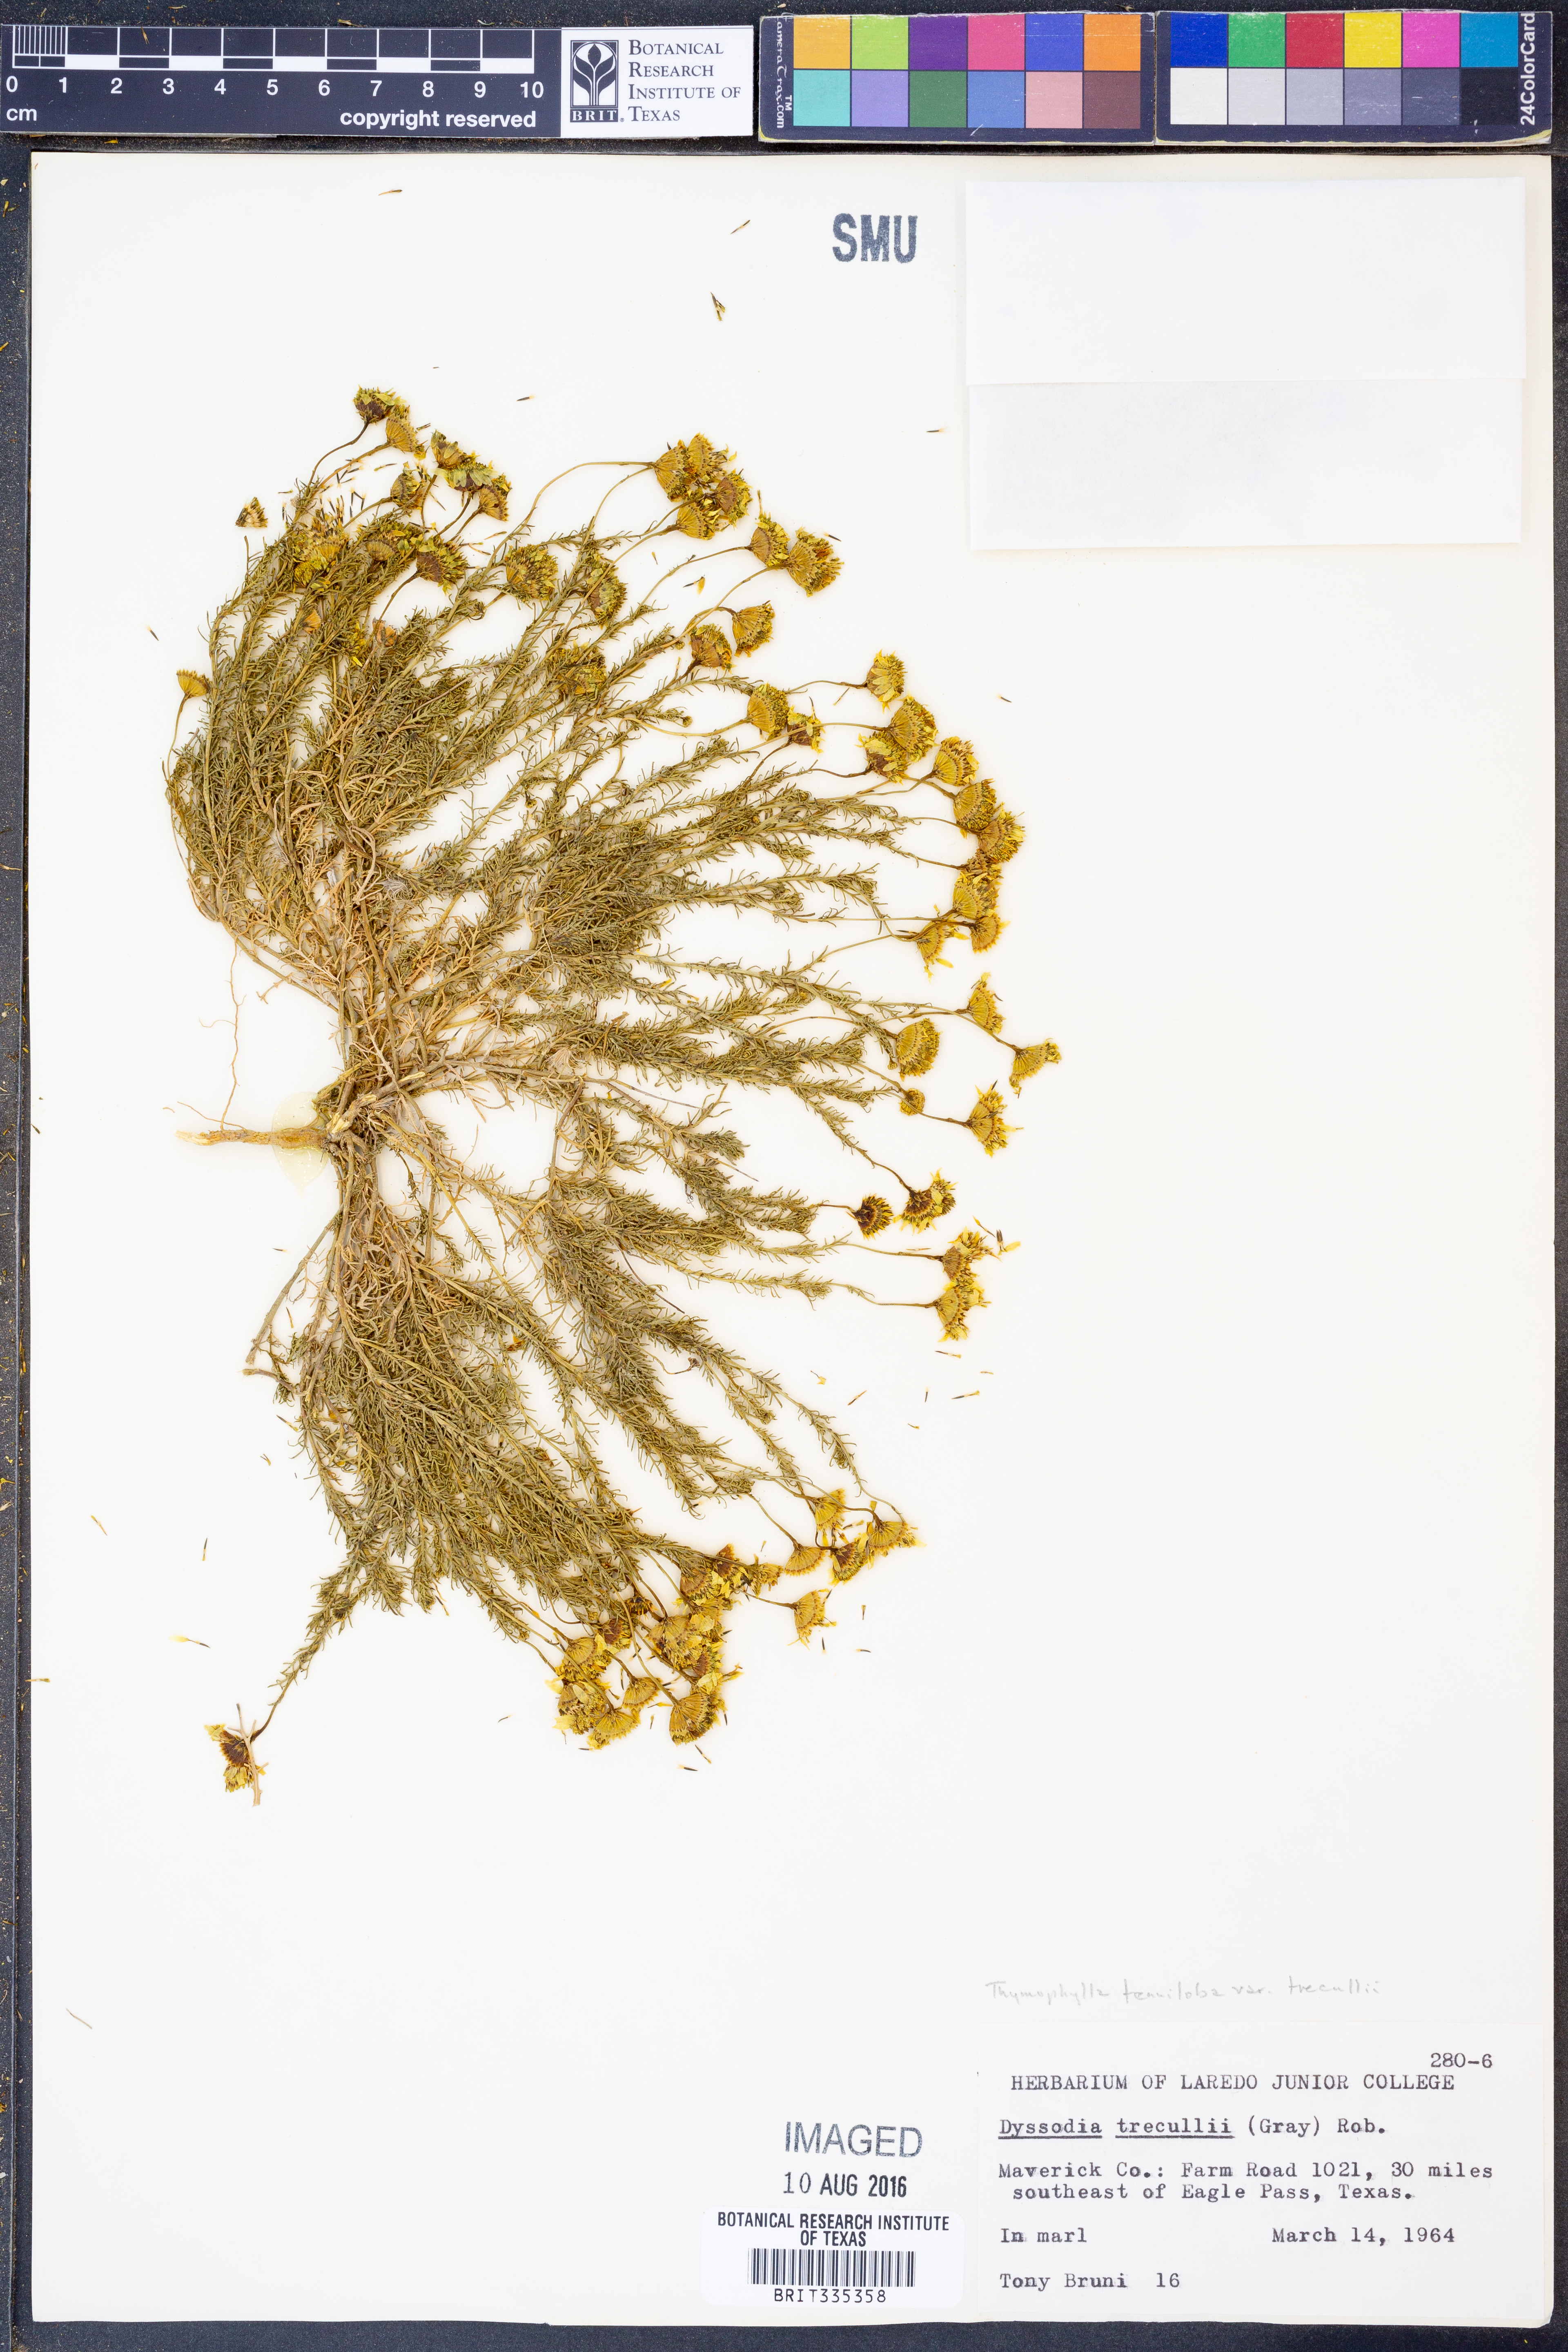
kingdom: Plantae
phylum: Tracheophyta
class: Magnoliopsida
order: Asterales
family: Asteraceae
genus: Thymophylla
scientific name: Thymophylla tenuiloba
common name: Dahlberg's daisy
